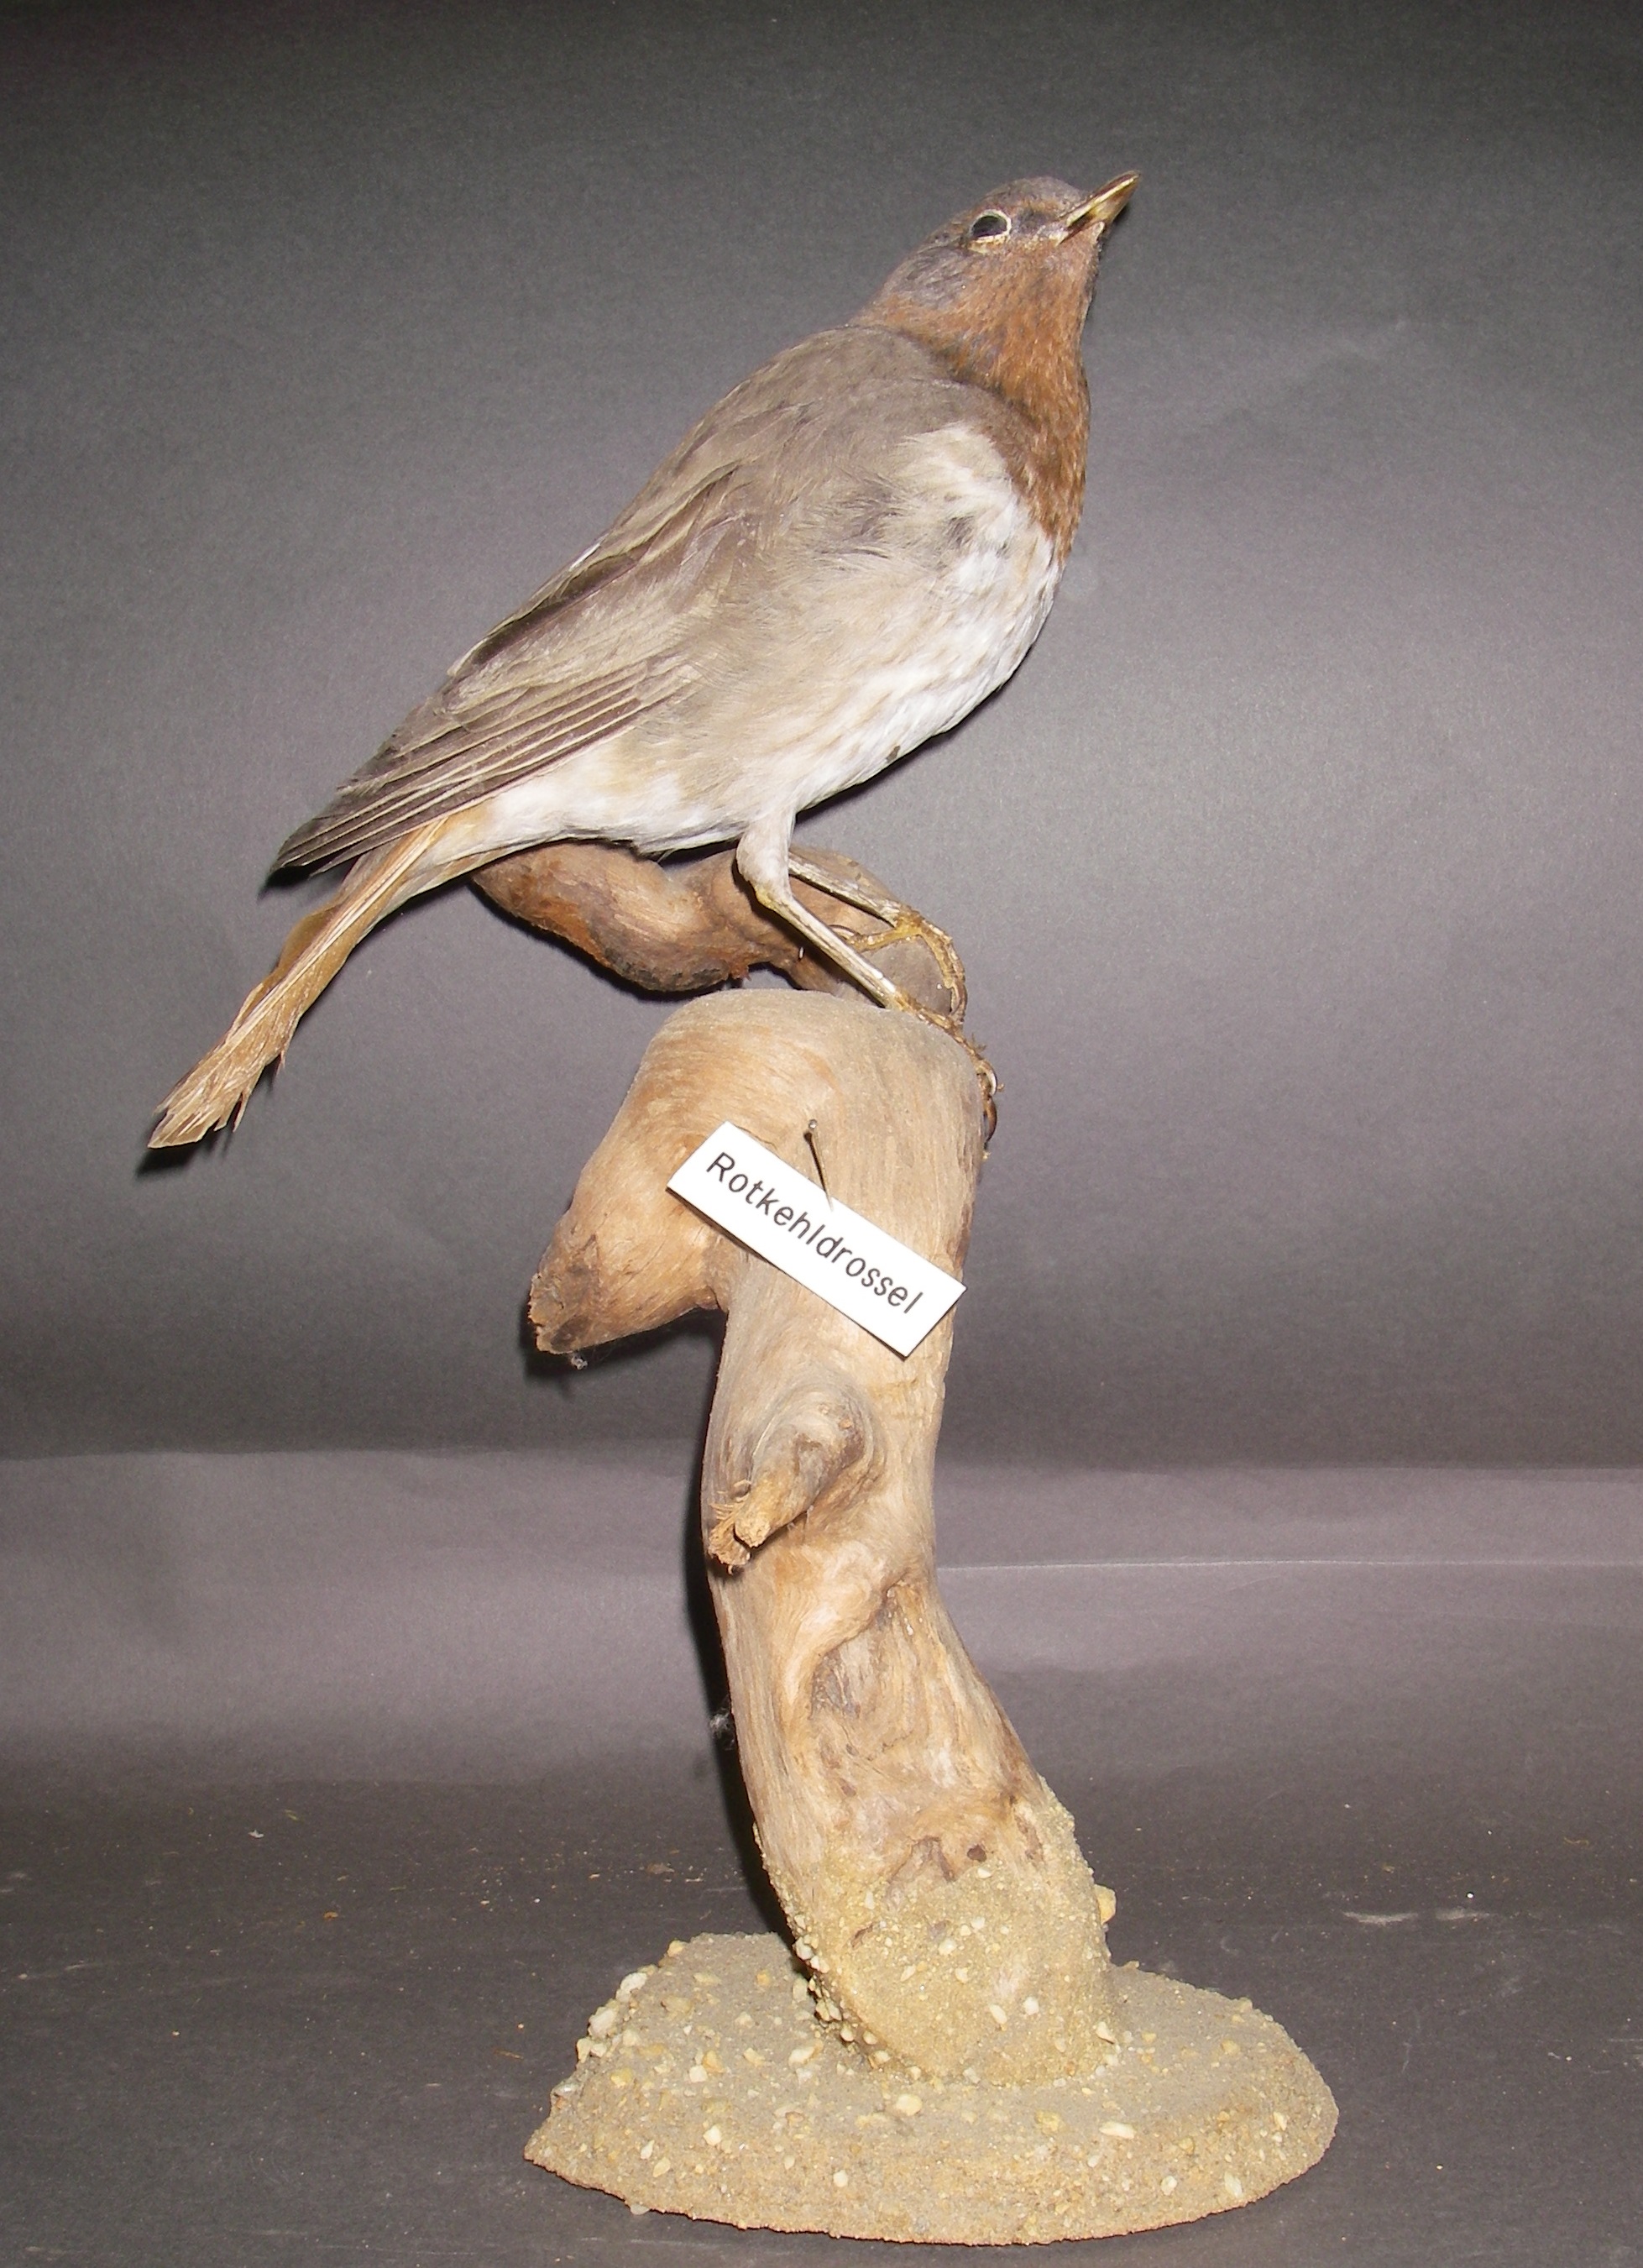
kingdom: Animalia
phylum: Chordata
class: Aves
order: Passeriformes
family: Turdidae
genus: Turdus
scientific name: Turdus ruficollis
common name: Red-throated thrush
